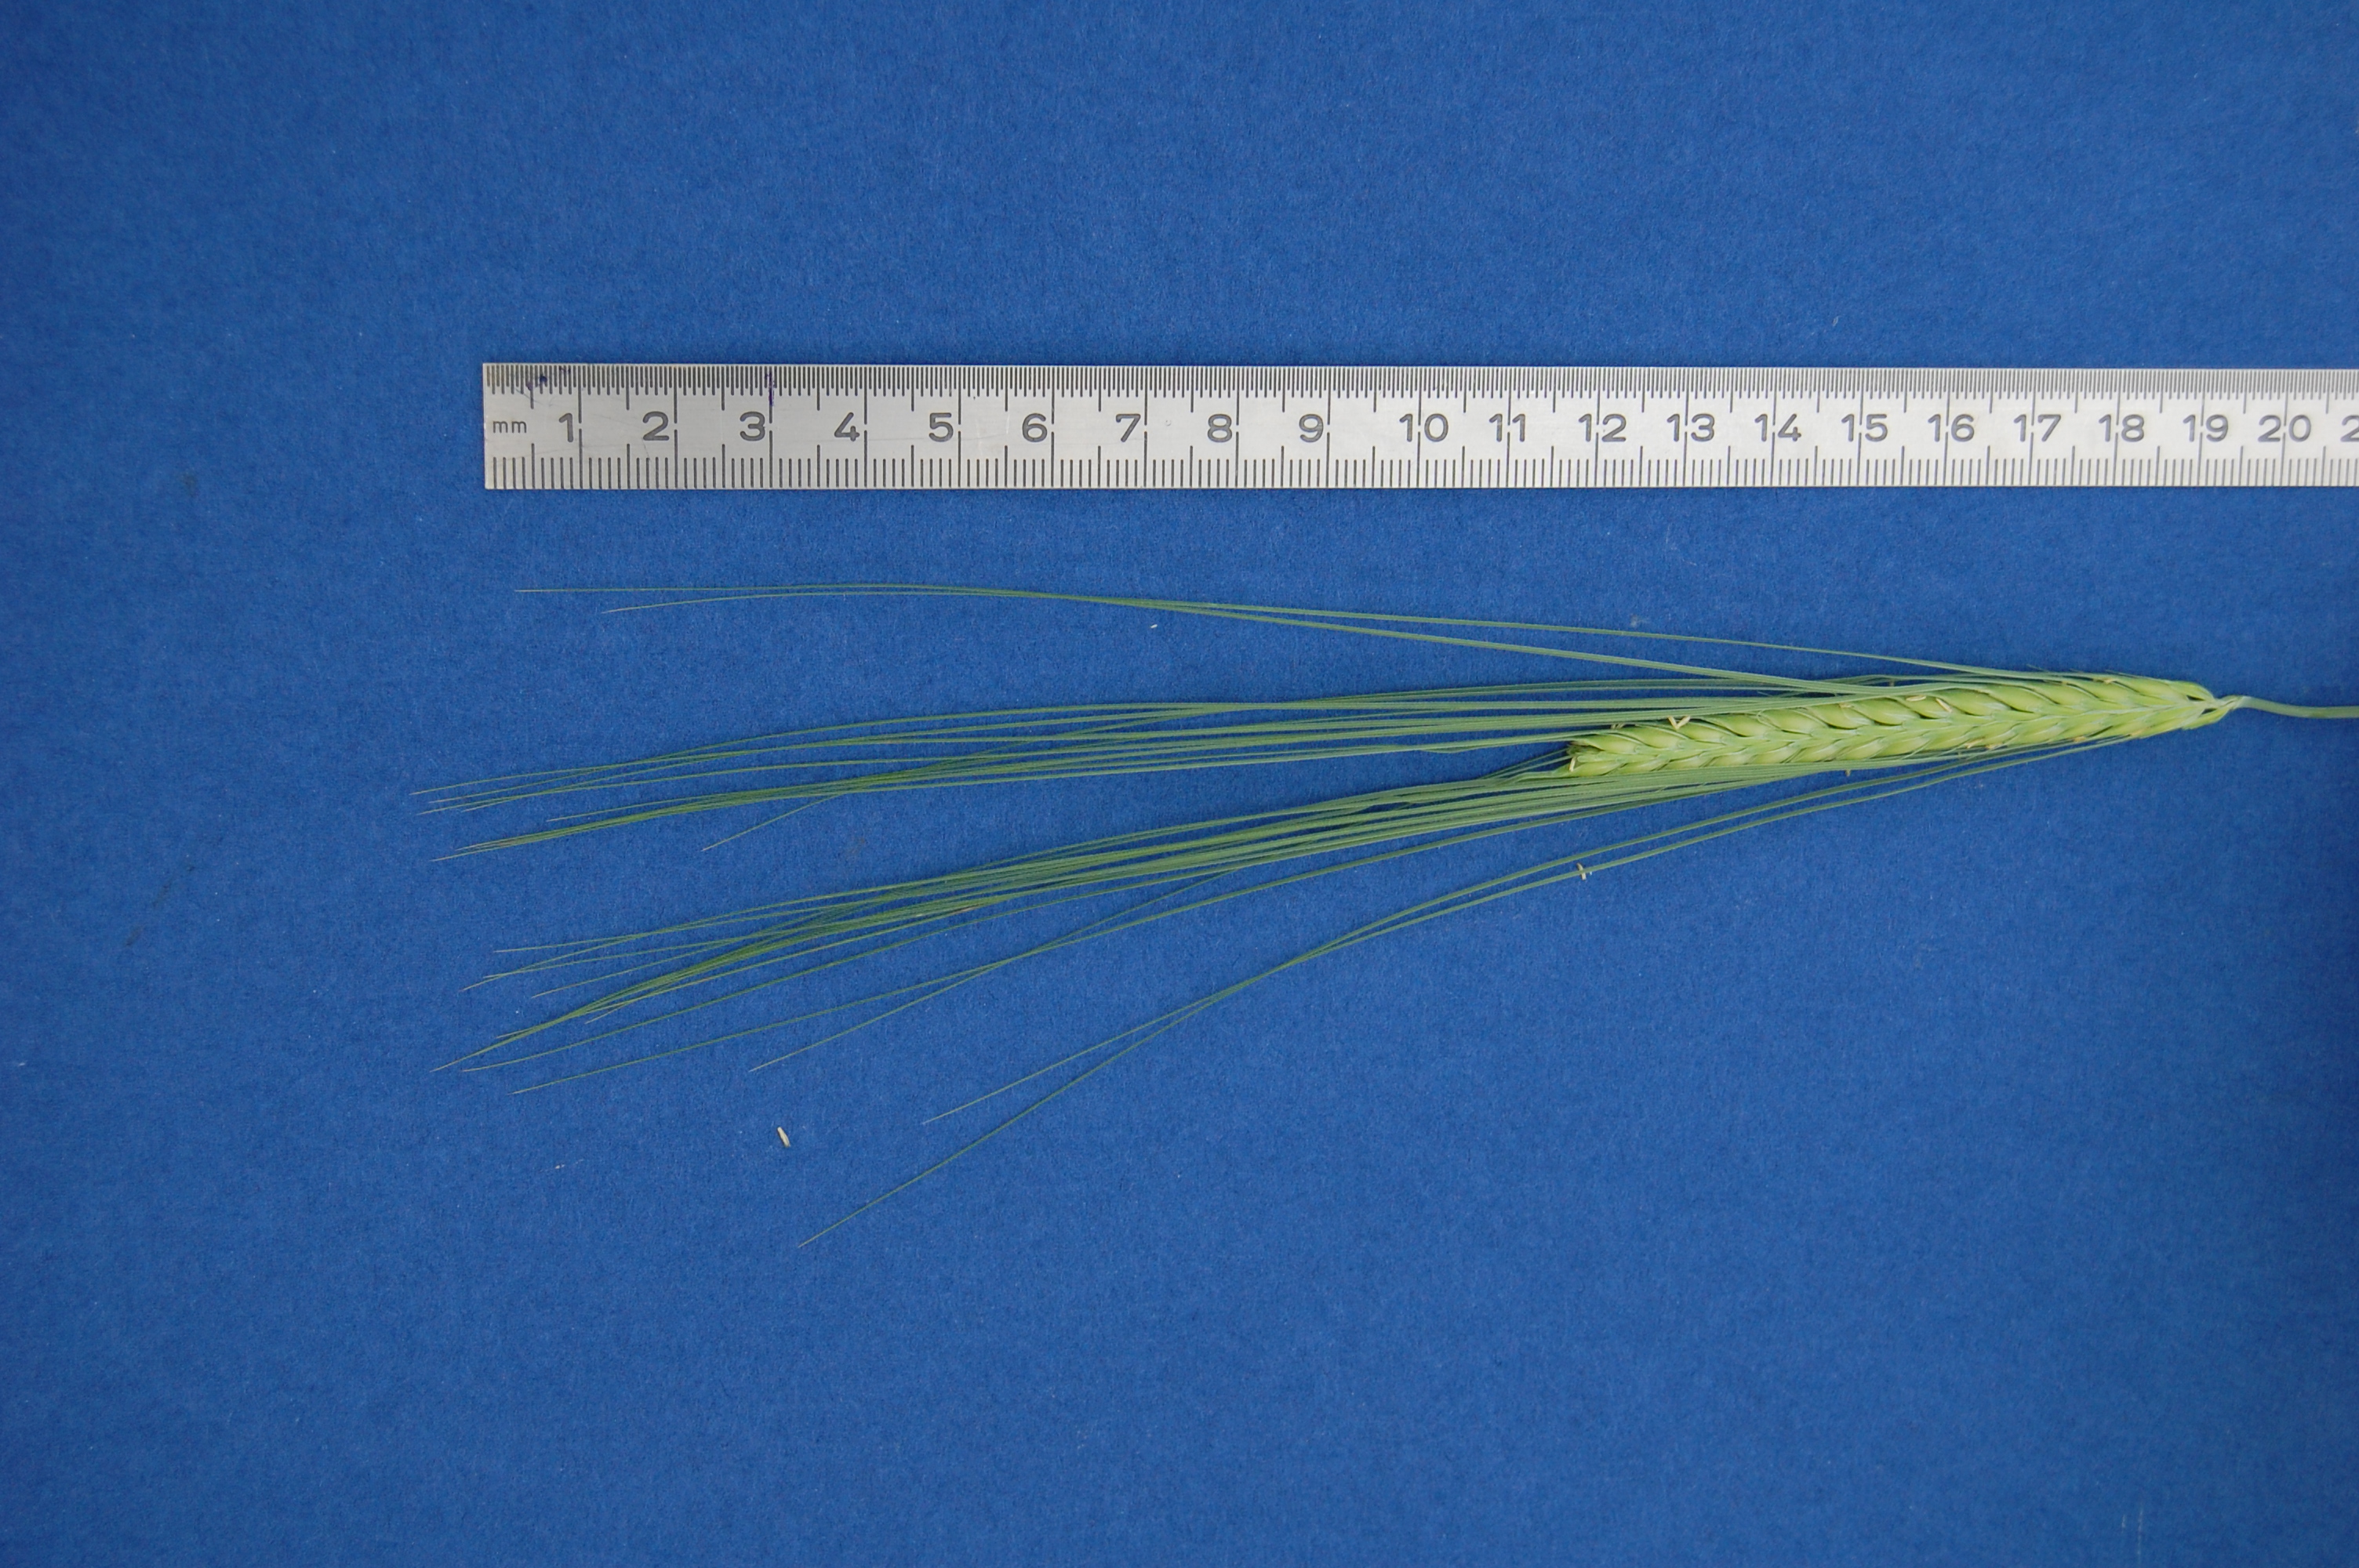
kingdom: Plantae
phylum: Tracheophyta
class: Liliopsida
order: Poales
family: Poaceae
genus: Hordeum
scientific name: Hordeum vulgare
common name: Common barley
